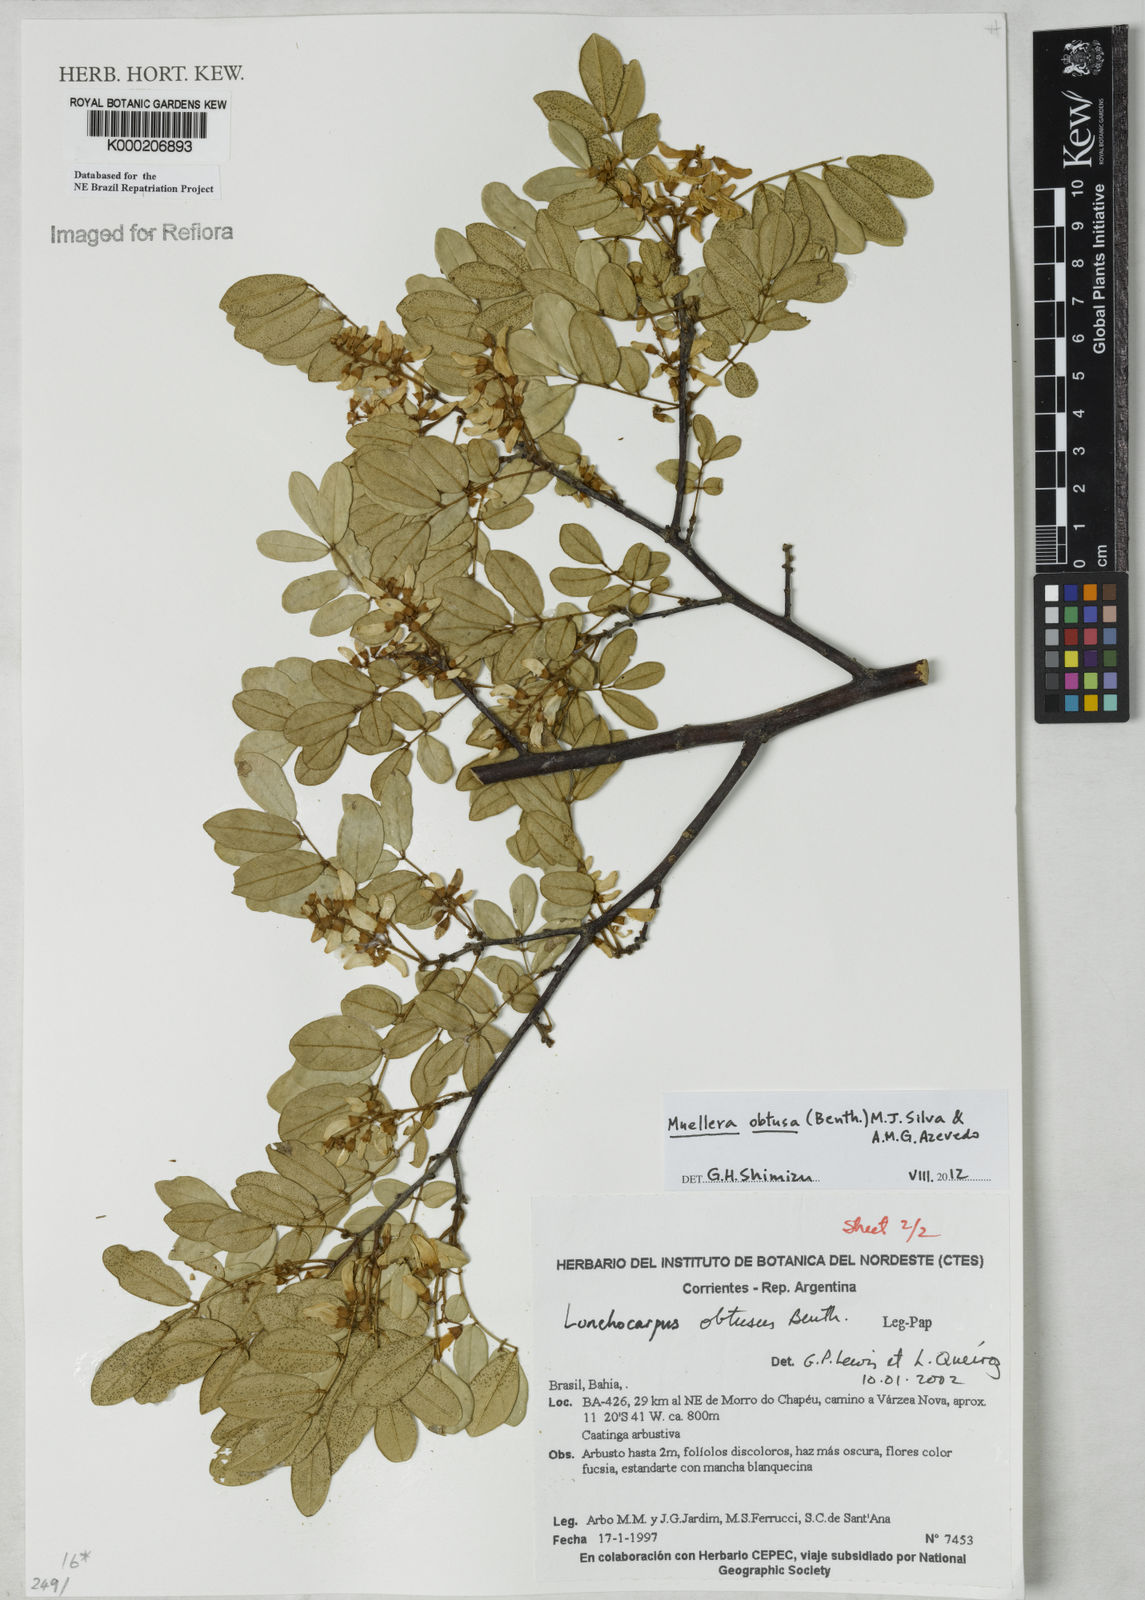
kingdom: Plantae
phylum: Tracheophyta
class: Magnoliopsida
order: Fabales
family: Fabaceae
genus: Muellera
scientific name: Muellera obtusa
